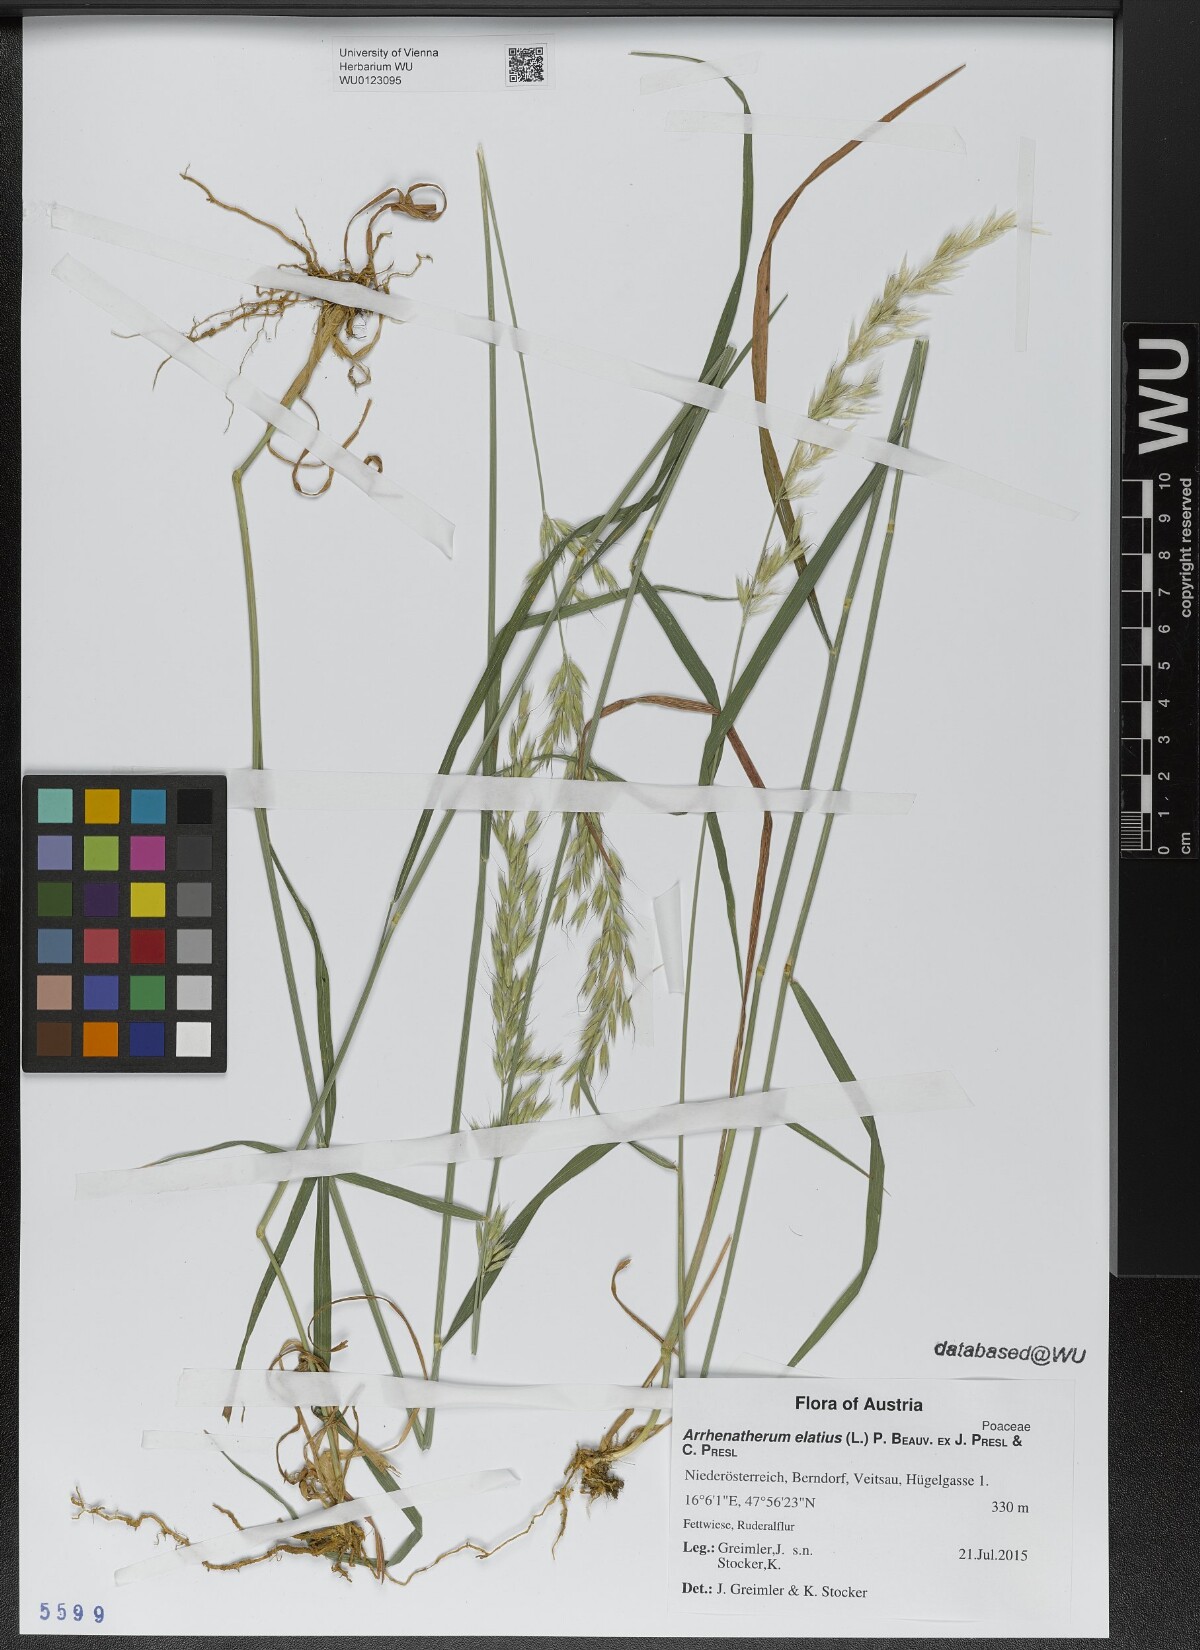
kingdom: Plantae
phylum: Tracheophyta
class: Liliopsida
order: Poales
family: Poaceae
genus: Arrhenatherum
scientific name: Arrhenatherum elatius
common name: Tall oatgrass
